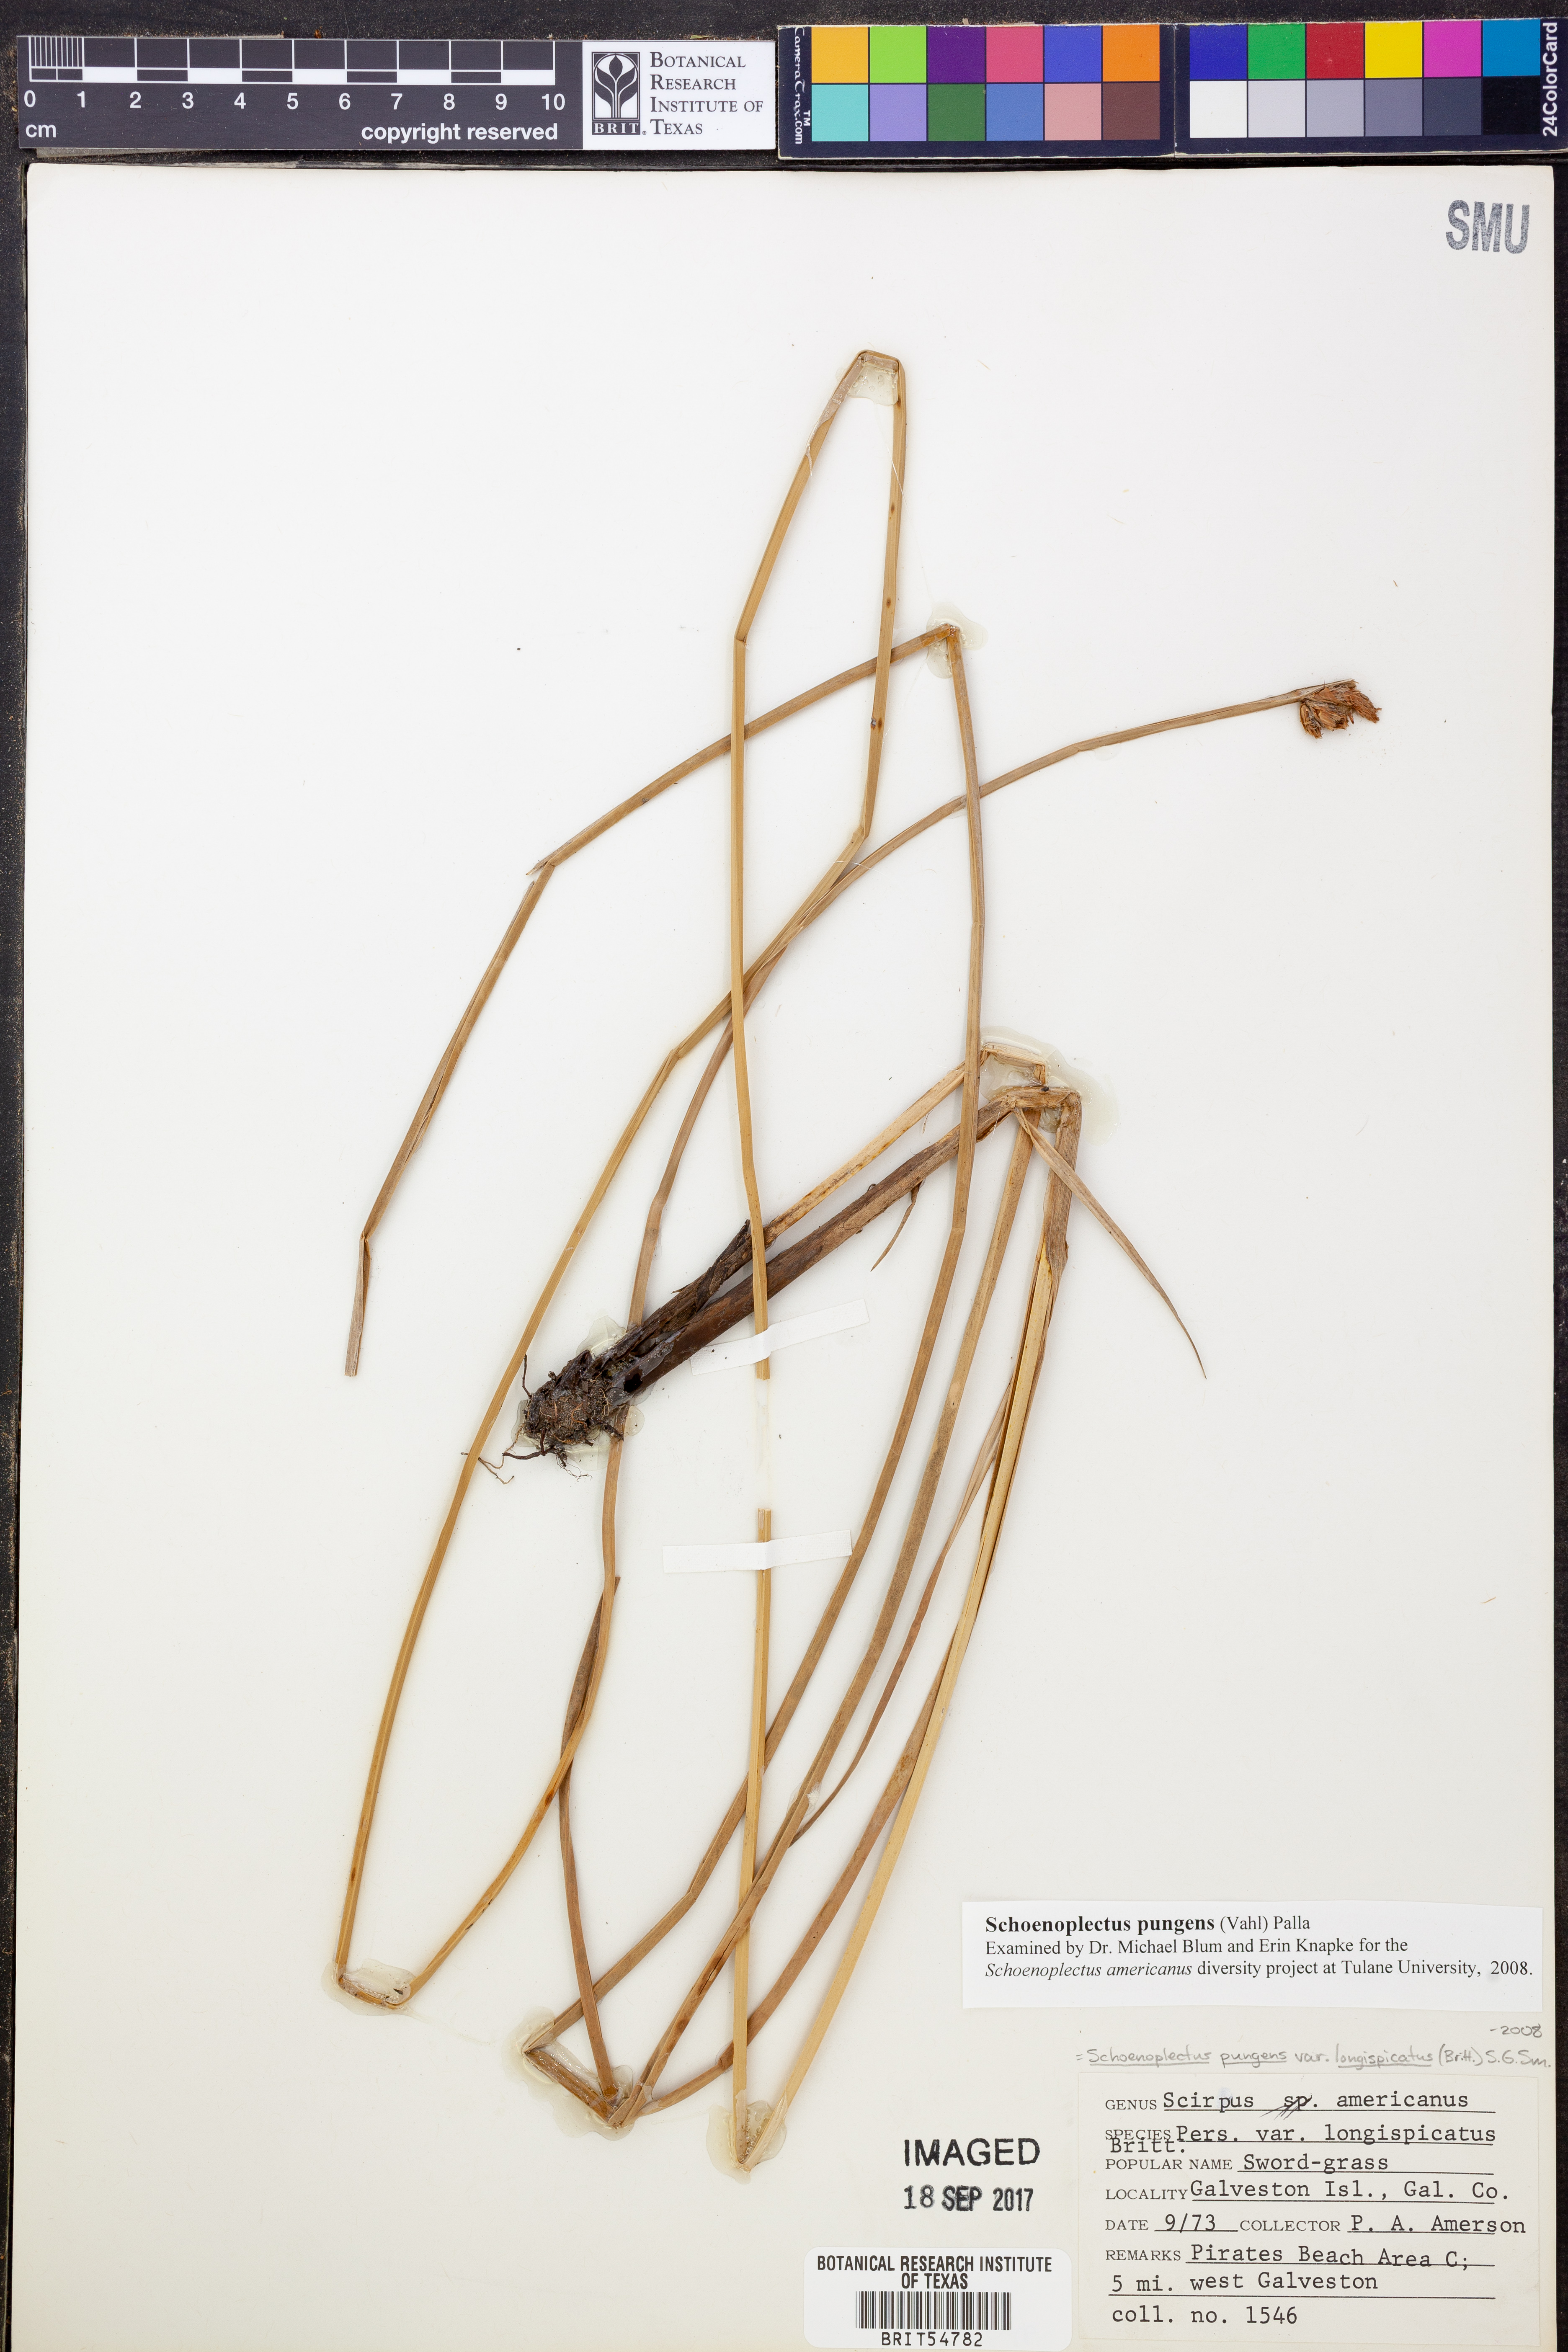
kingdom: Plantae
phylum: Tracheophyta
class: Liliopsida
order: Poales
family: Cyperaceae
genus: Schoenoplectus
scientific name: Schoenoplectus pungens
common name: Sharp club-rush
